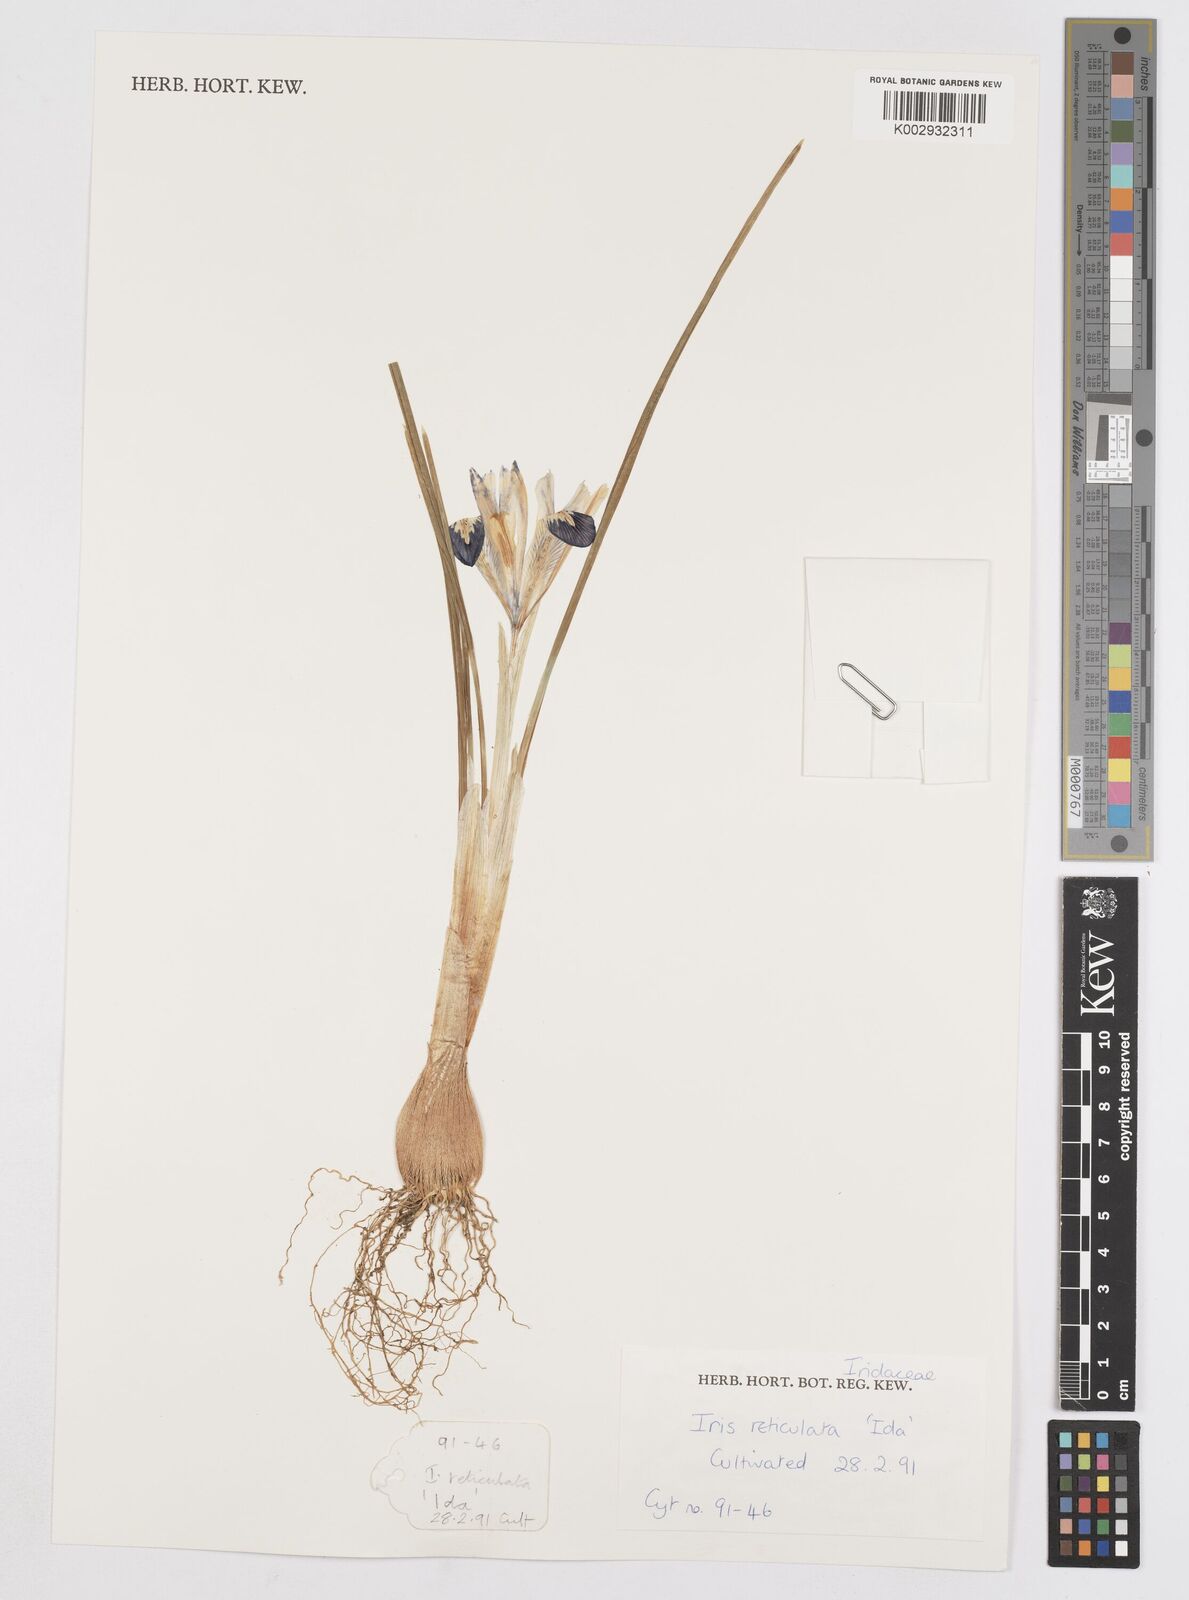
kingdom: Plantae
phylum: Tracheophyta
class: Liliopsida
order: Asparagales
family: Iridaceae
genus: Iris
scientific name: Iris reticulata
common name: Netted iris
